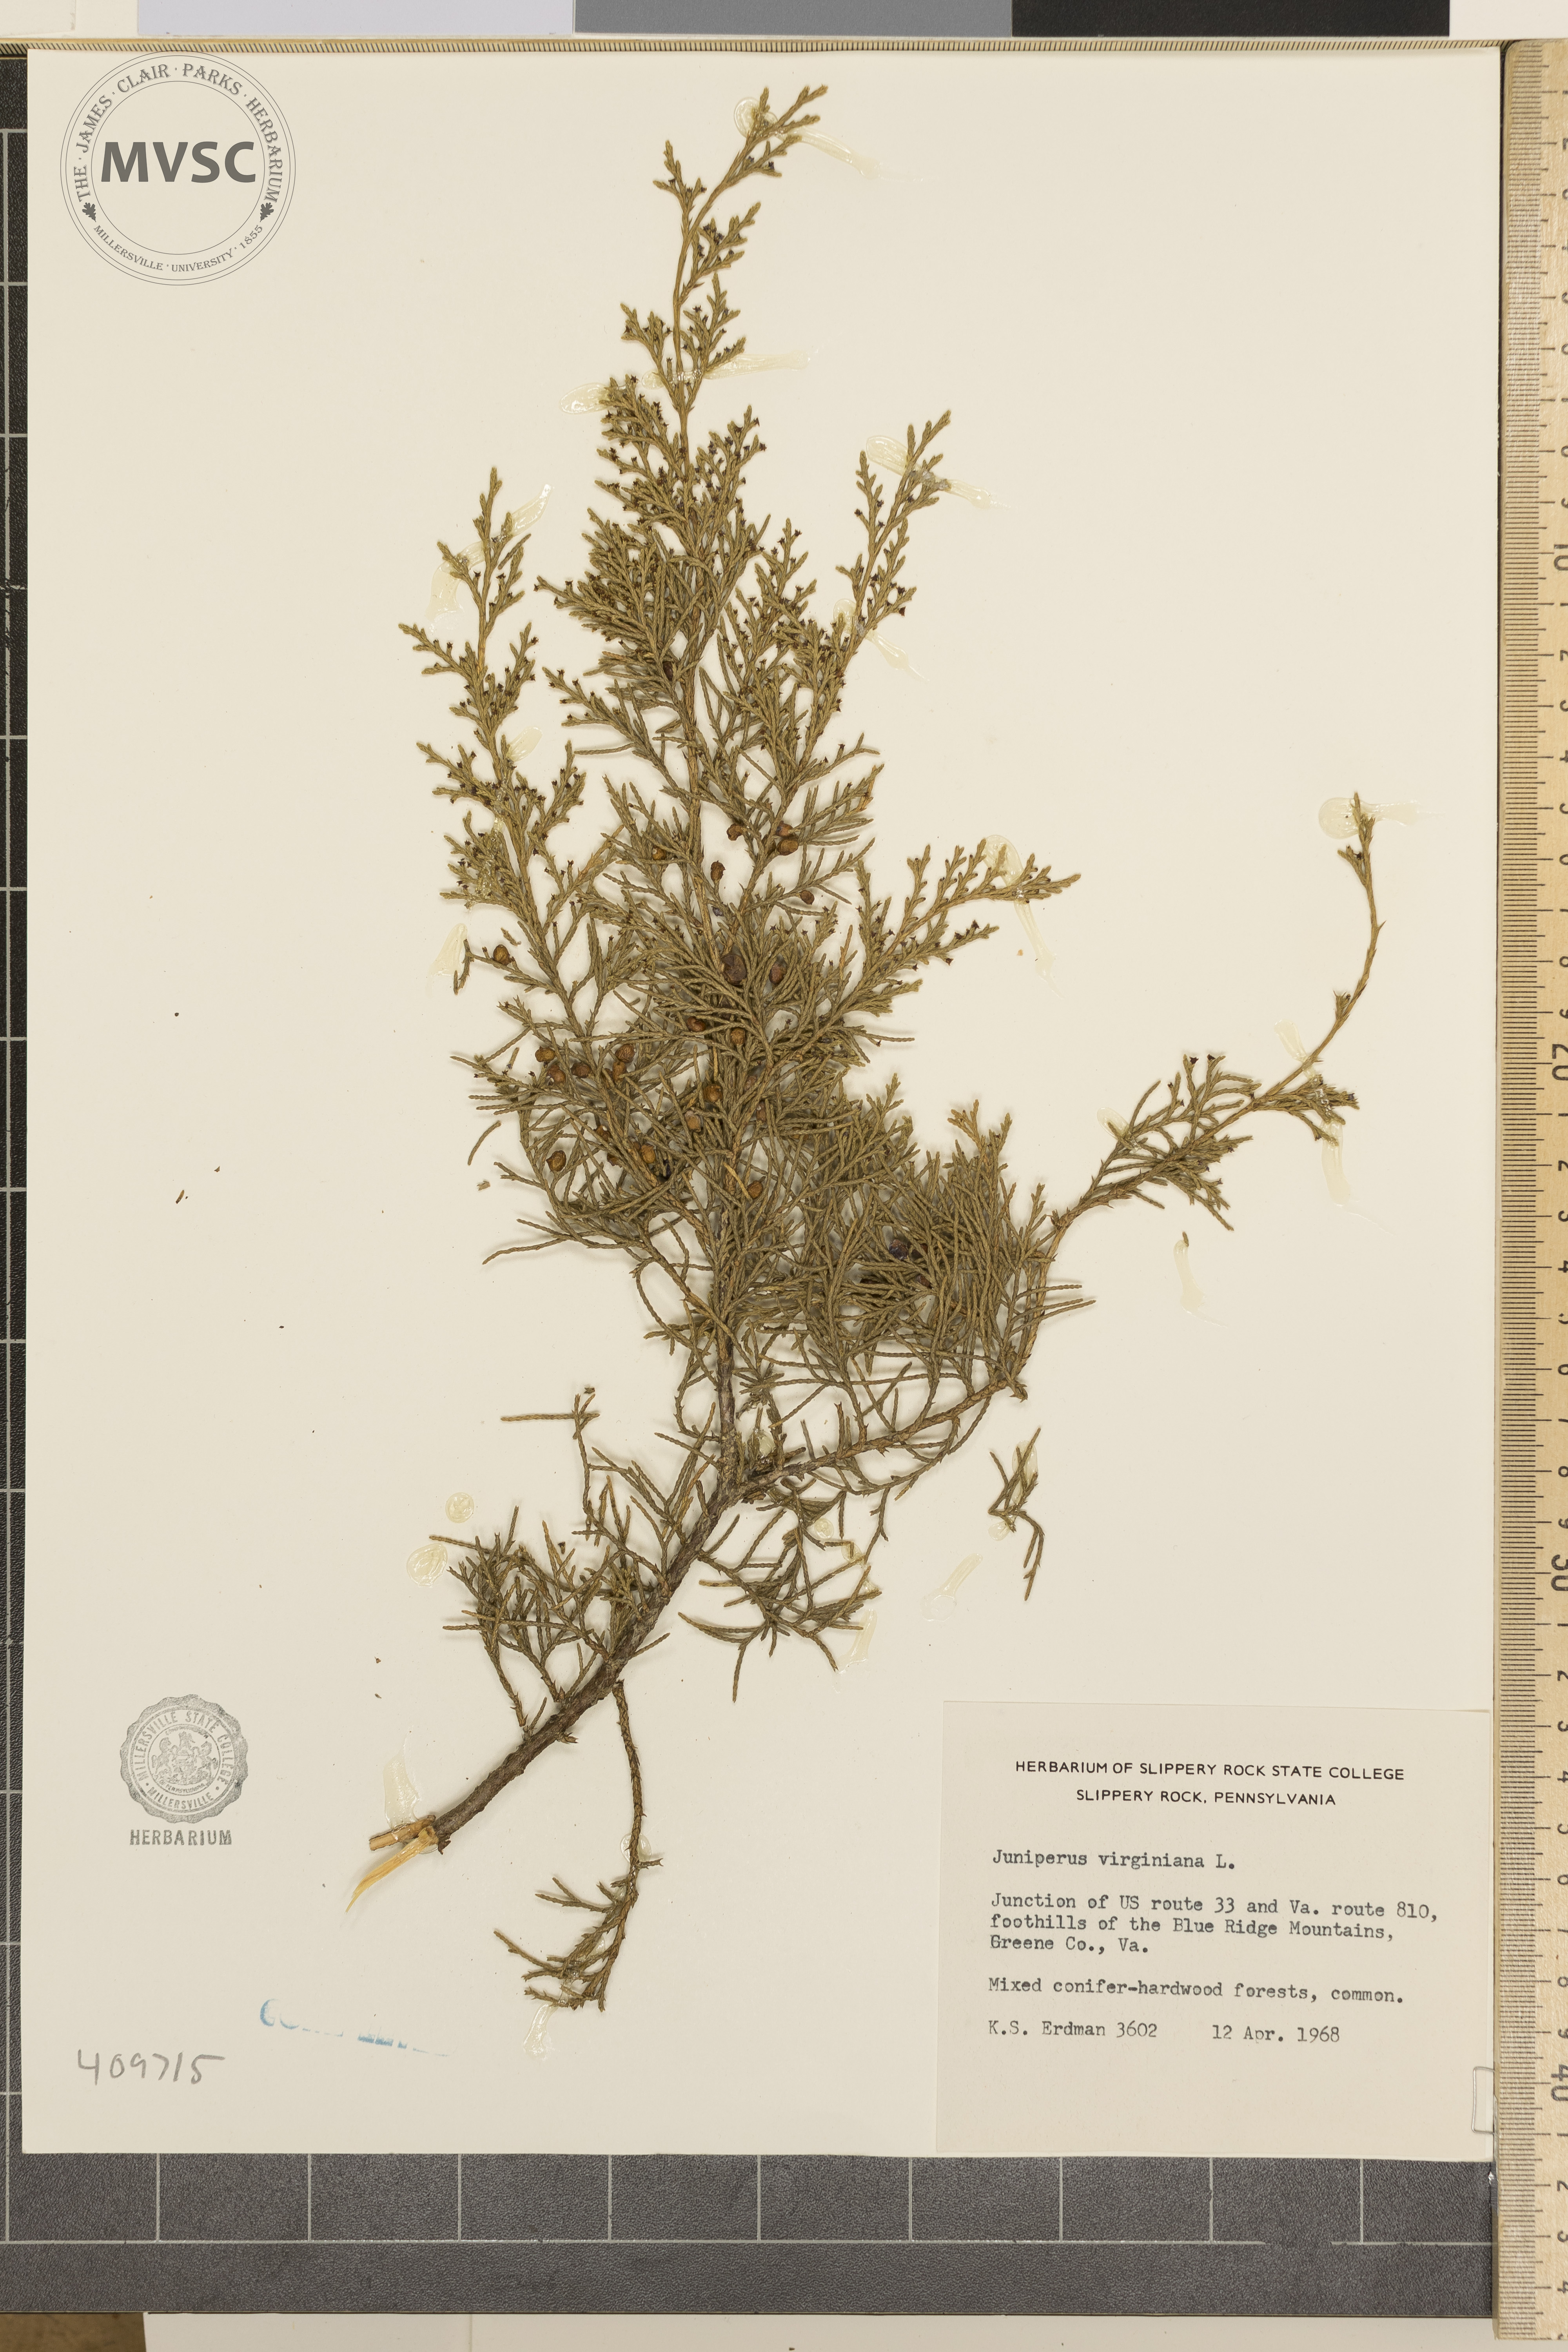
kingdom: Plantae
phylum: Tracheophyta
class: Pinopsida
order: Pinales
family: Cupressaceae
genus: Juniperus
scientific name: Juniperus virginiana
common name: Red juniper
